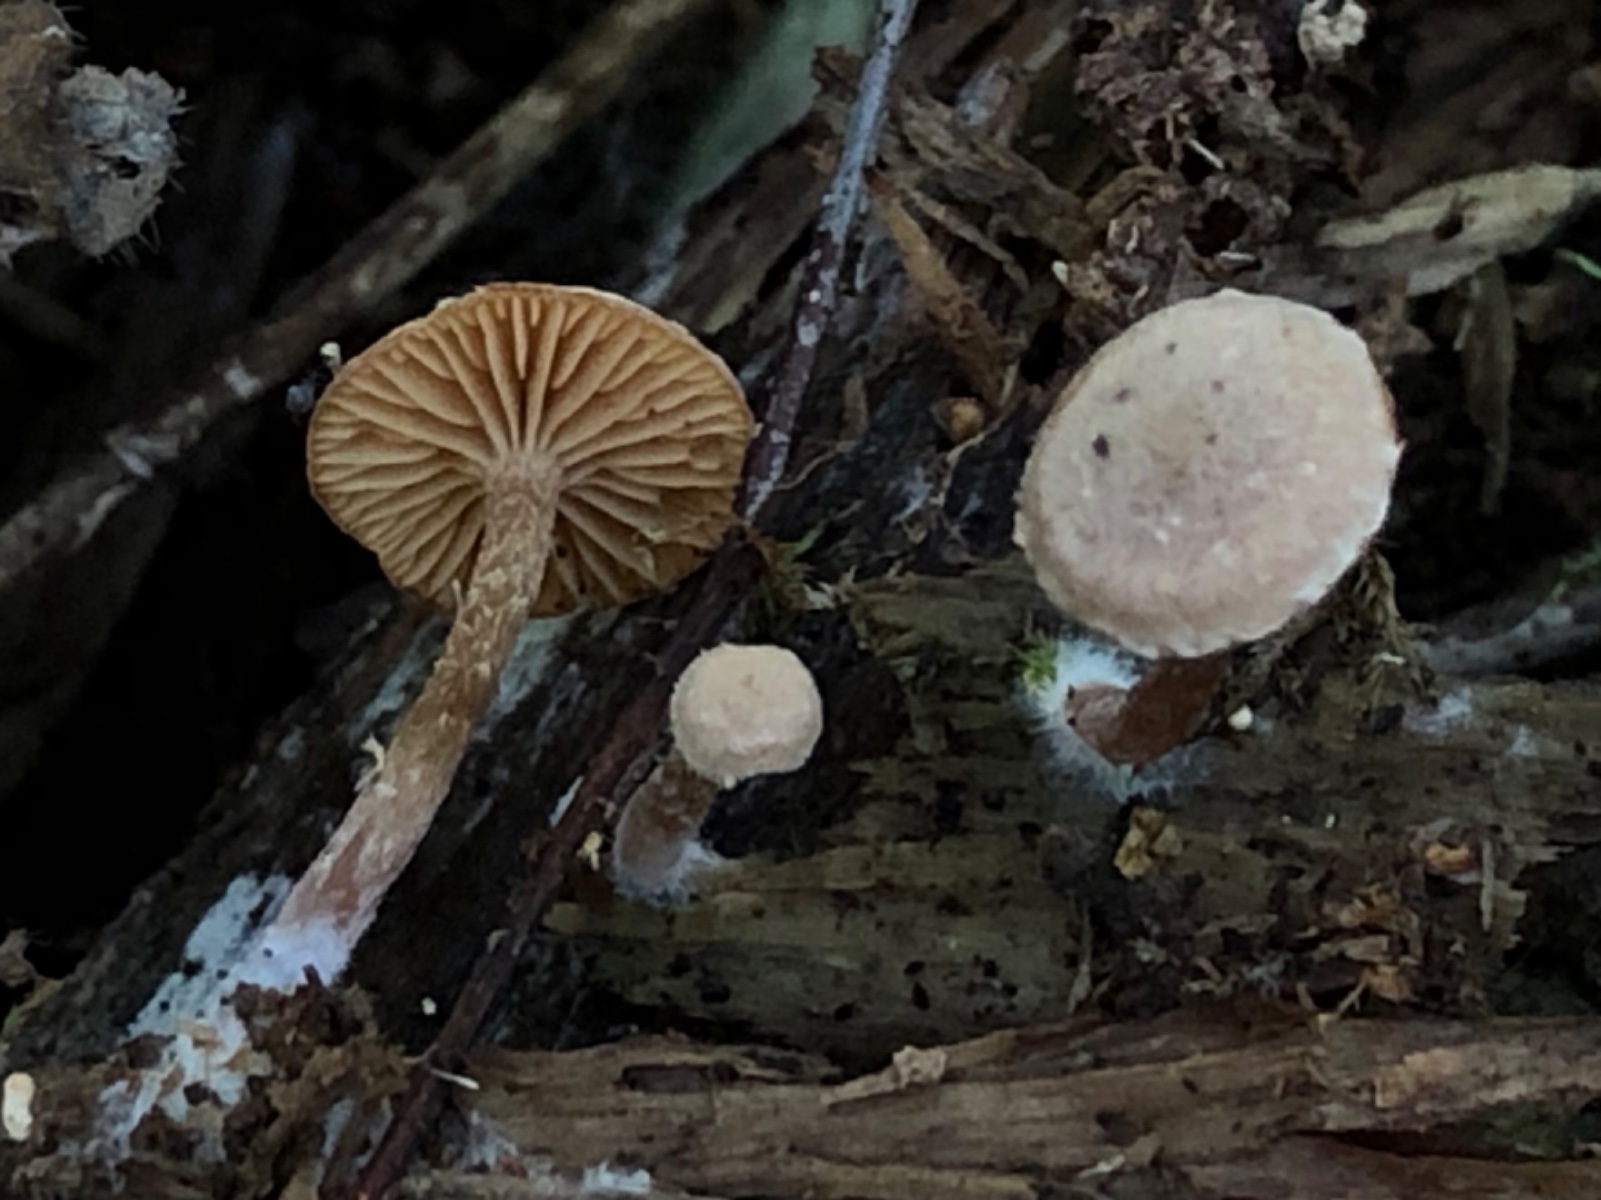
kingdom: Fungi
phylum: Basidiomycota
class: Agaricomycetes
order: Agaricales
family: Tubariaceae
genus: Tubaria
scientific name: Tubaria conspersa
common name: bleg fnughat
